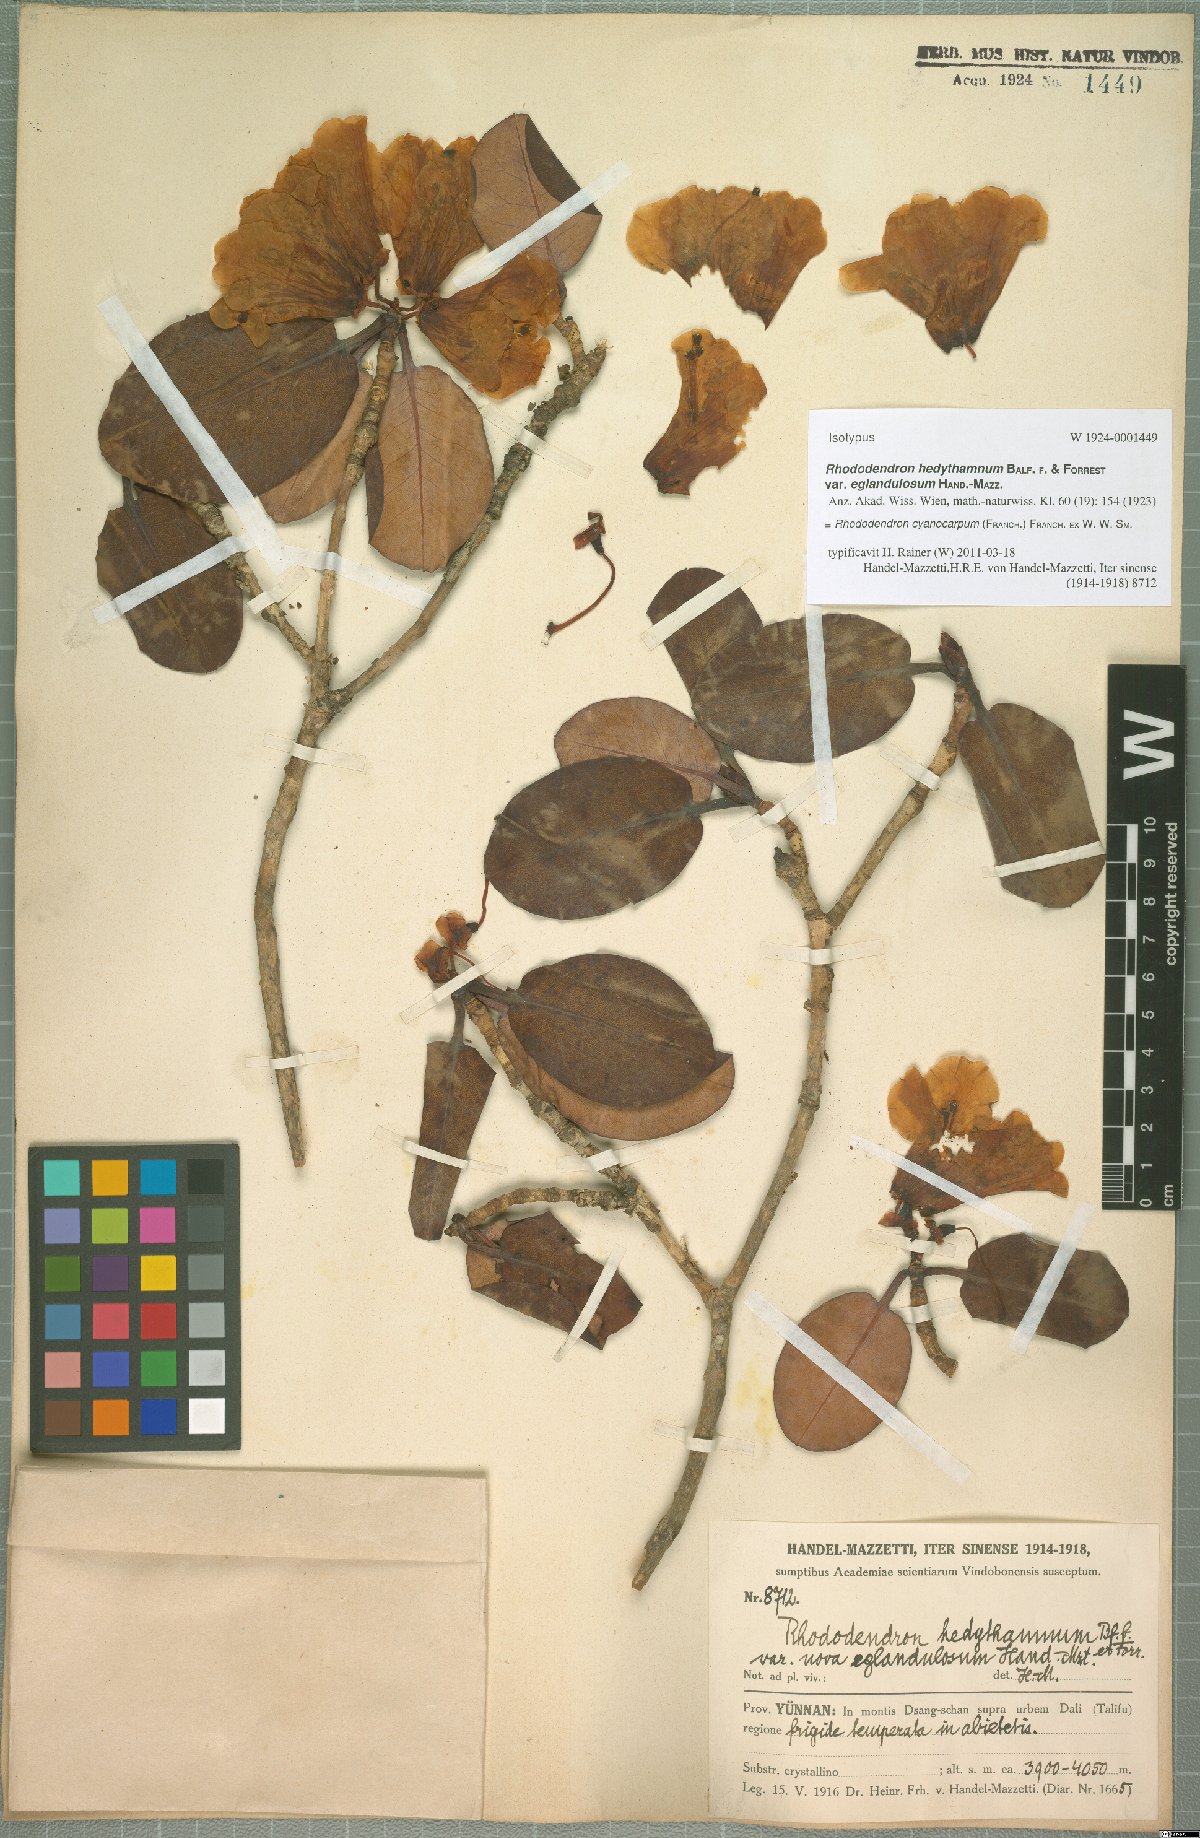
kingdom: Plantae
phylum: Tracheophyta
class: Magnoliopsida
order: Ericales
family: Ericaceae
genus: Rhododendron
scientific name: Rhododendron cyanocarpum
